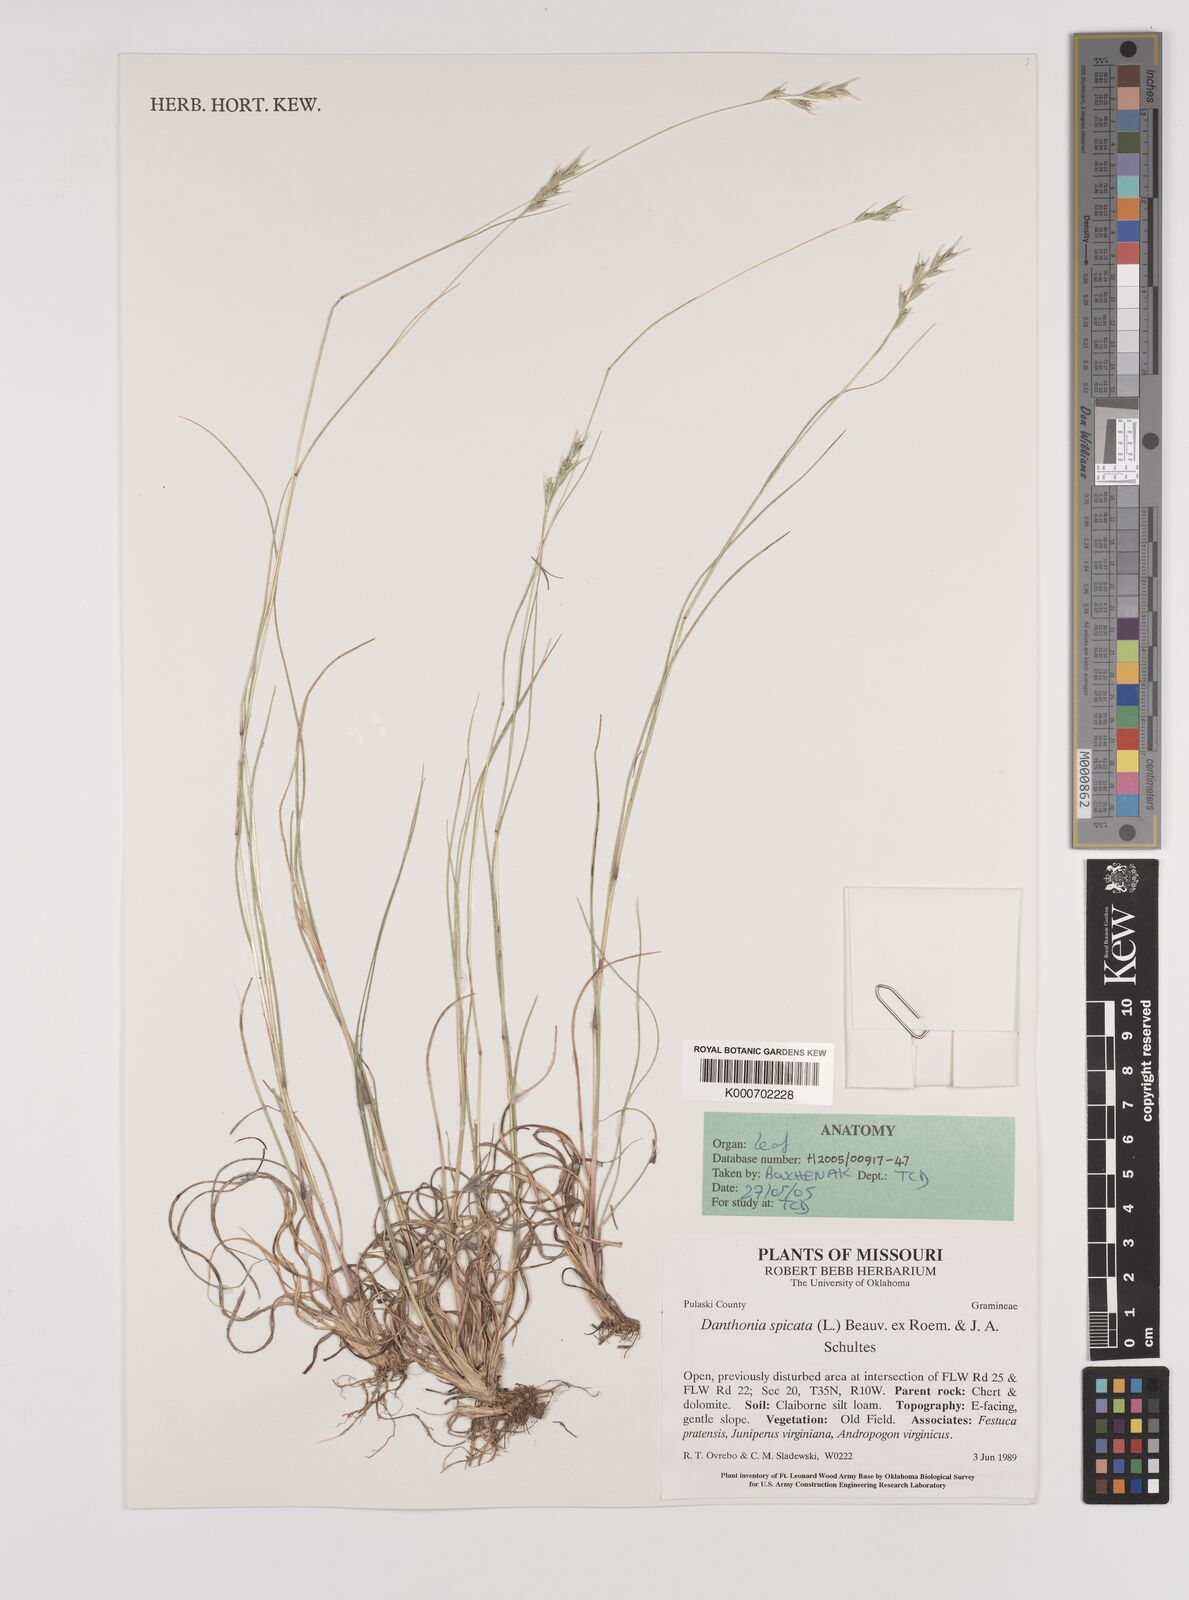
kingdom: Plantae
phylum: Tracheophyta
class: Liliopsida
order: Poales
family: Poaceae
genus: Danthonia
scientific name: Danthonia spicata
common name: Common wild oatgrass
